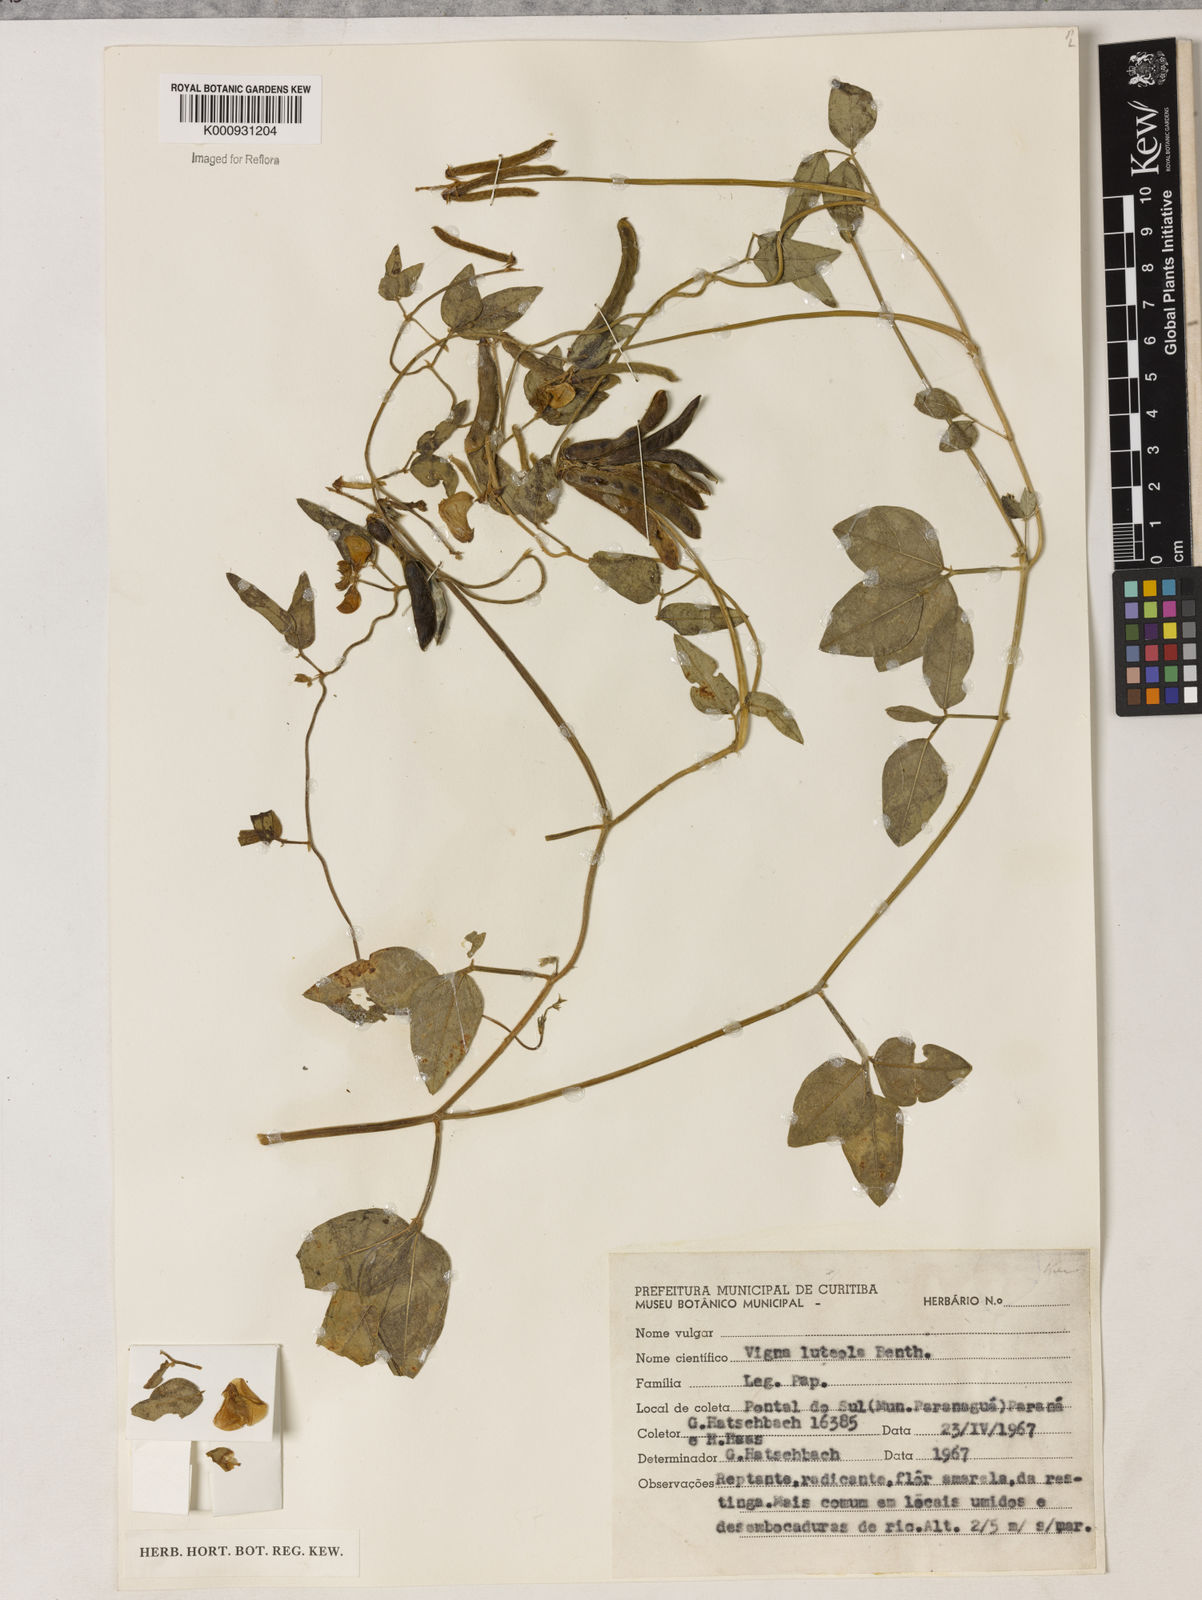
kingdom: Plantae
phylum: Tracheophyta
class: Magnoliopsida
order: Fabales
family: Fabaceae
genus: Vigna
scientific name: Vigna luteola
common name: Hairypod cowpea
